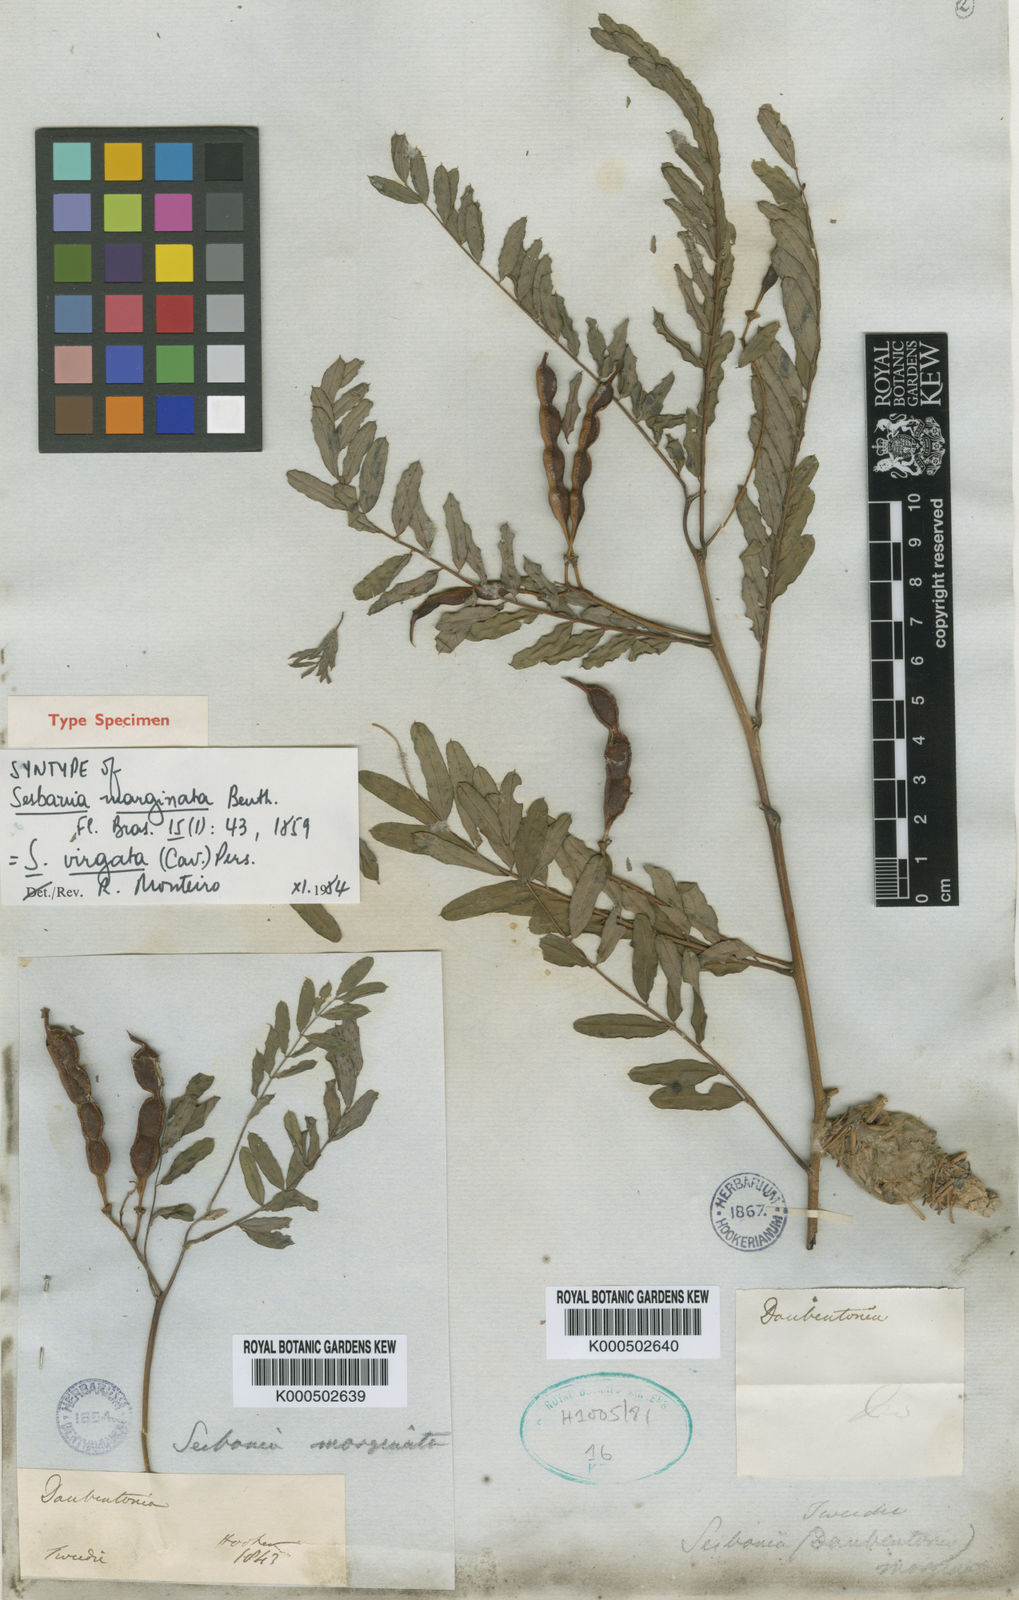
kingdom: Plantae
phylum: Tracheophyta
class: Magnoliopsida
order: Fabales
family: Fabaceae
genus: Sesbania
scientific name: Sesbania
